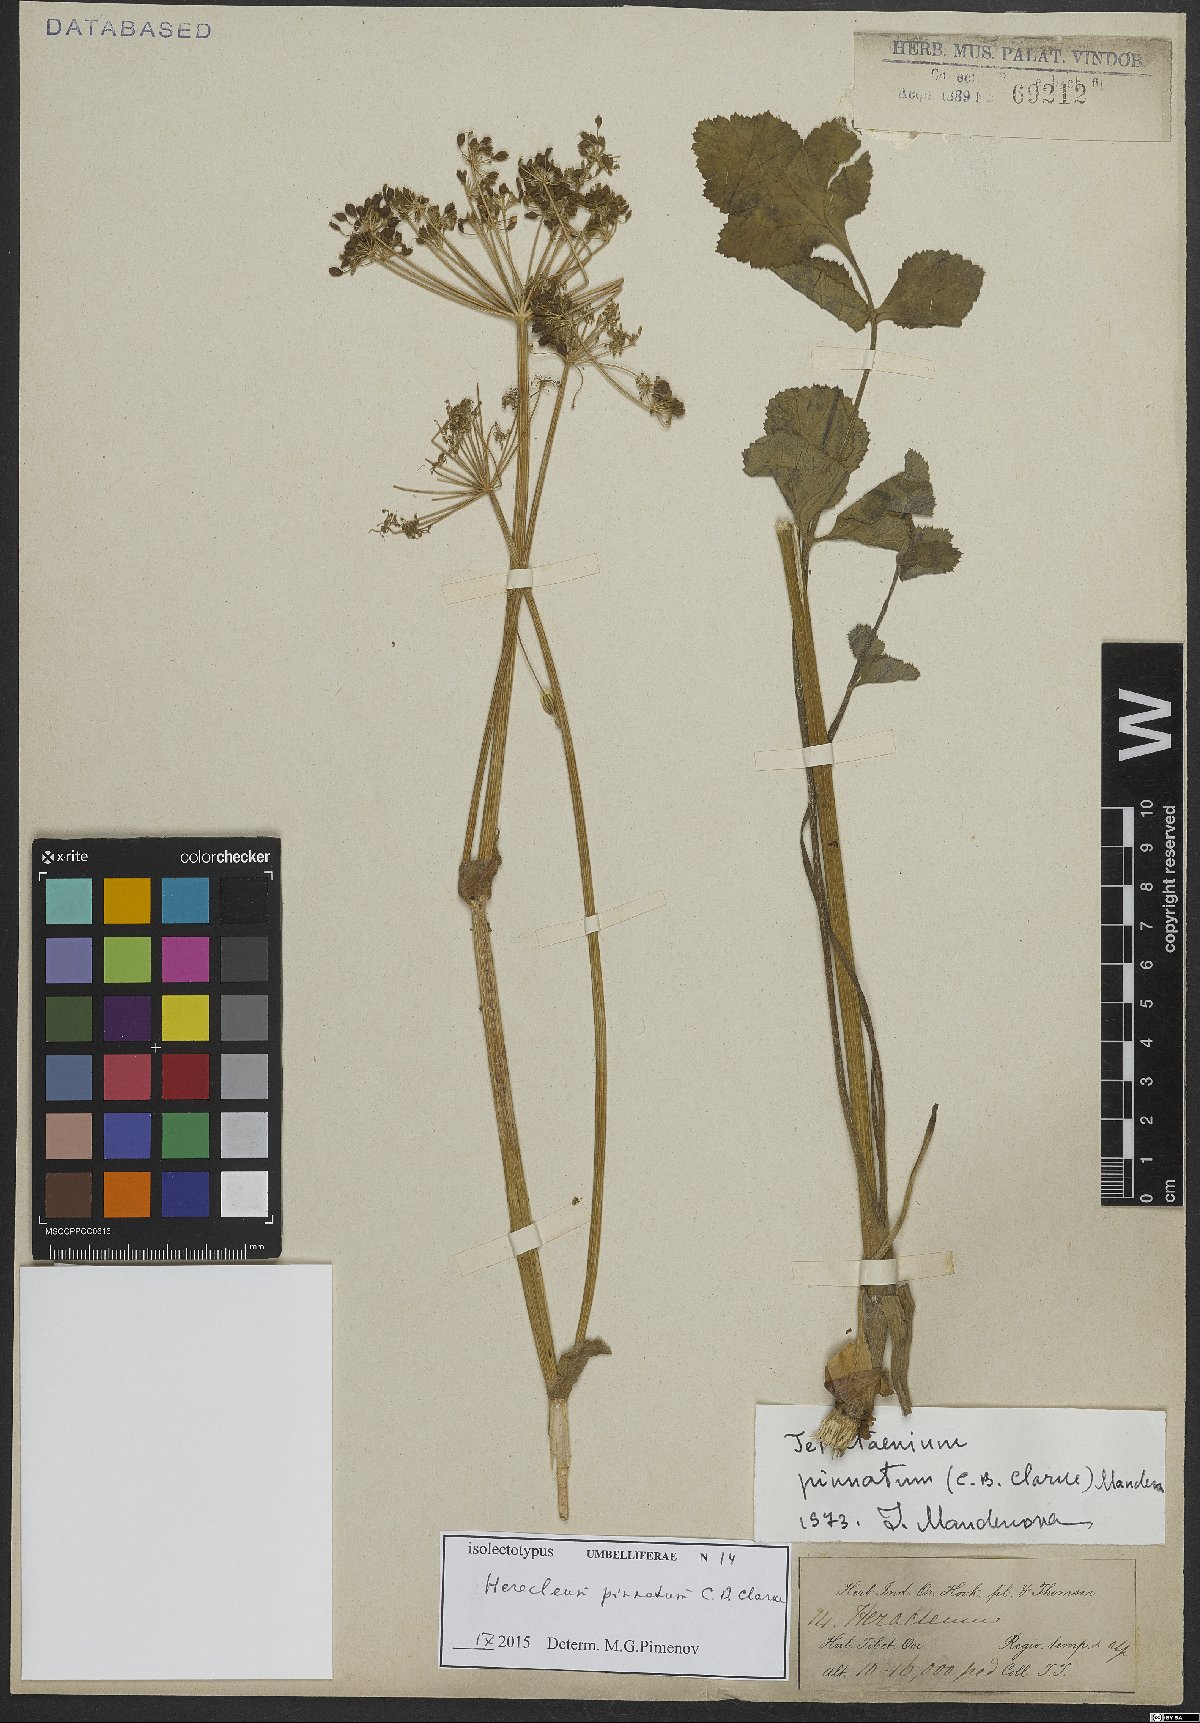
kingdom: Plantae
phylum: Tracheophyta
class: Magnoliopsida
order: Apiales
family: Apiaceae
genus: Tetrataenium
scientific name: Tetrataenium pinnatum
